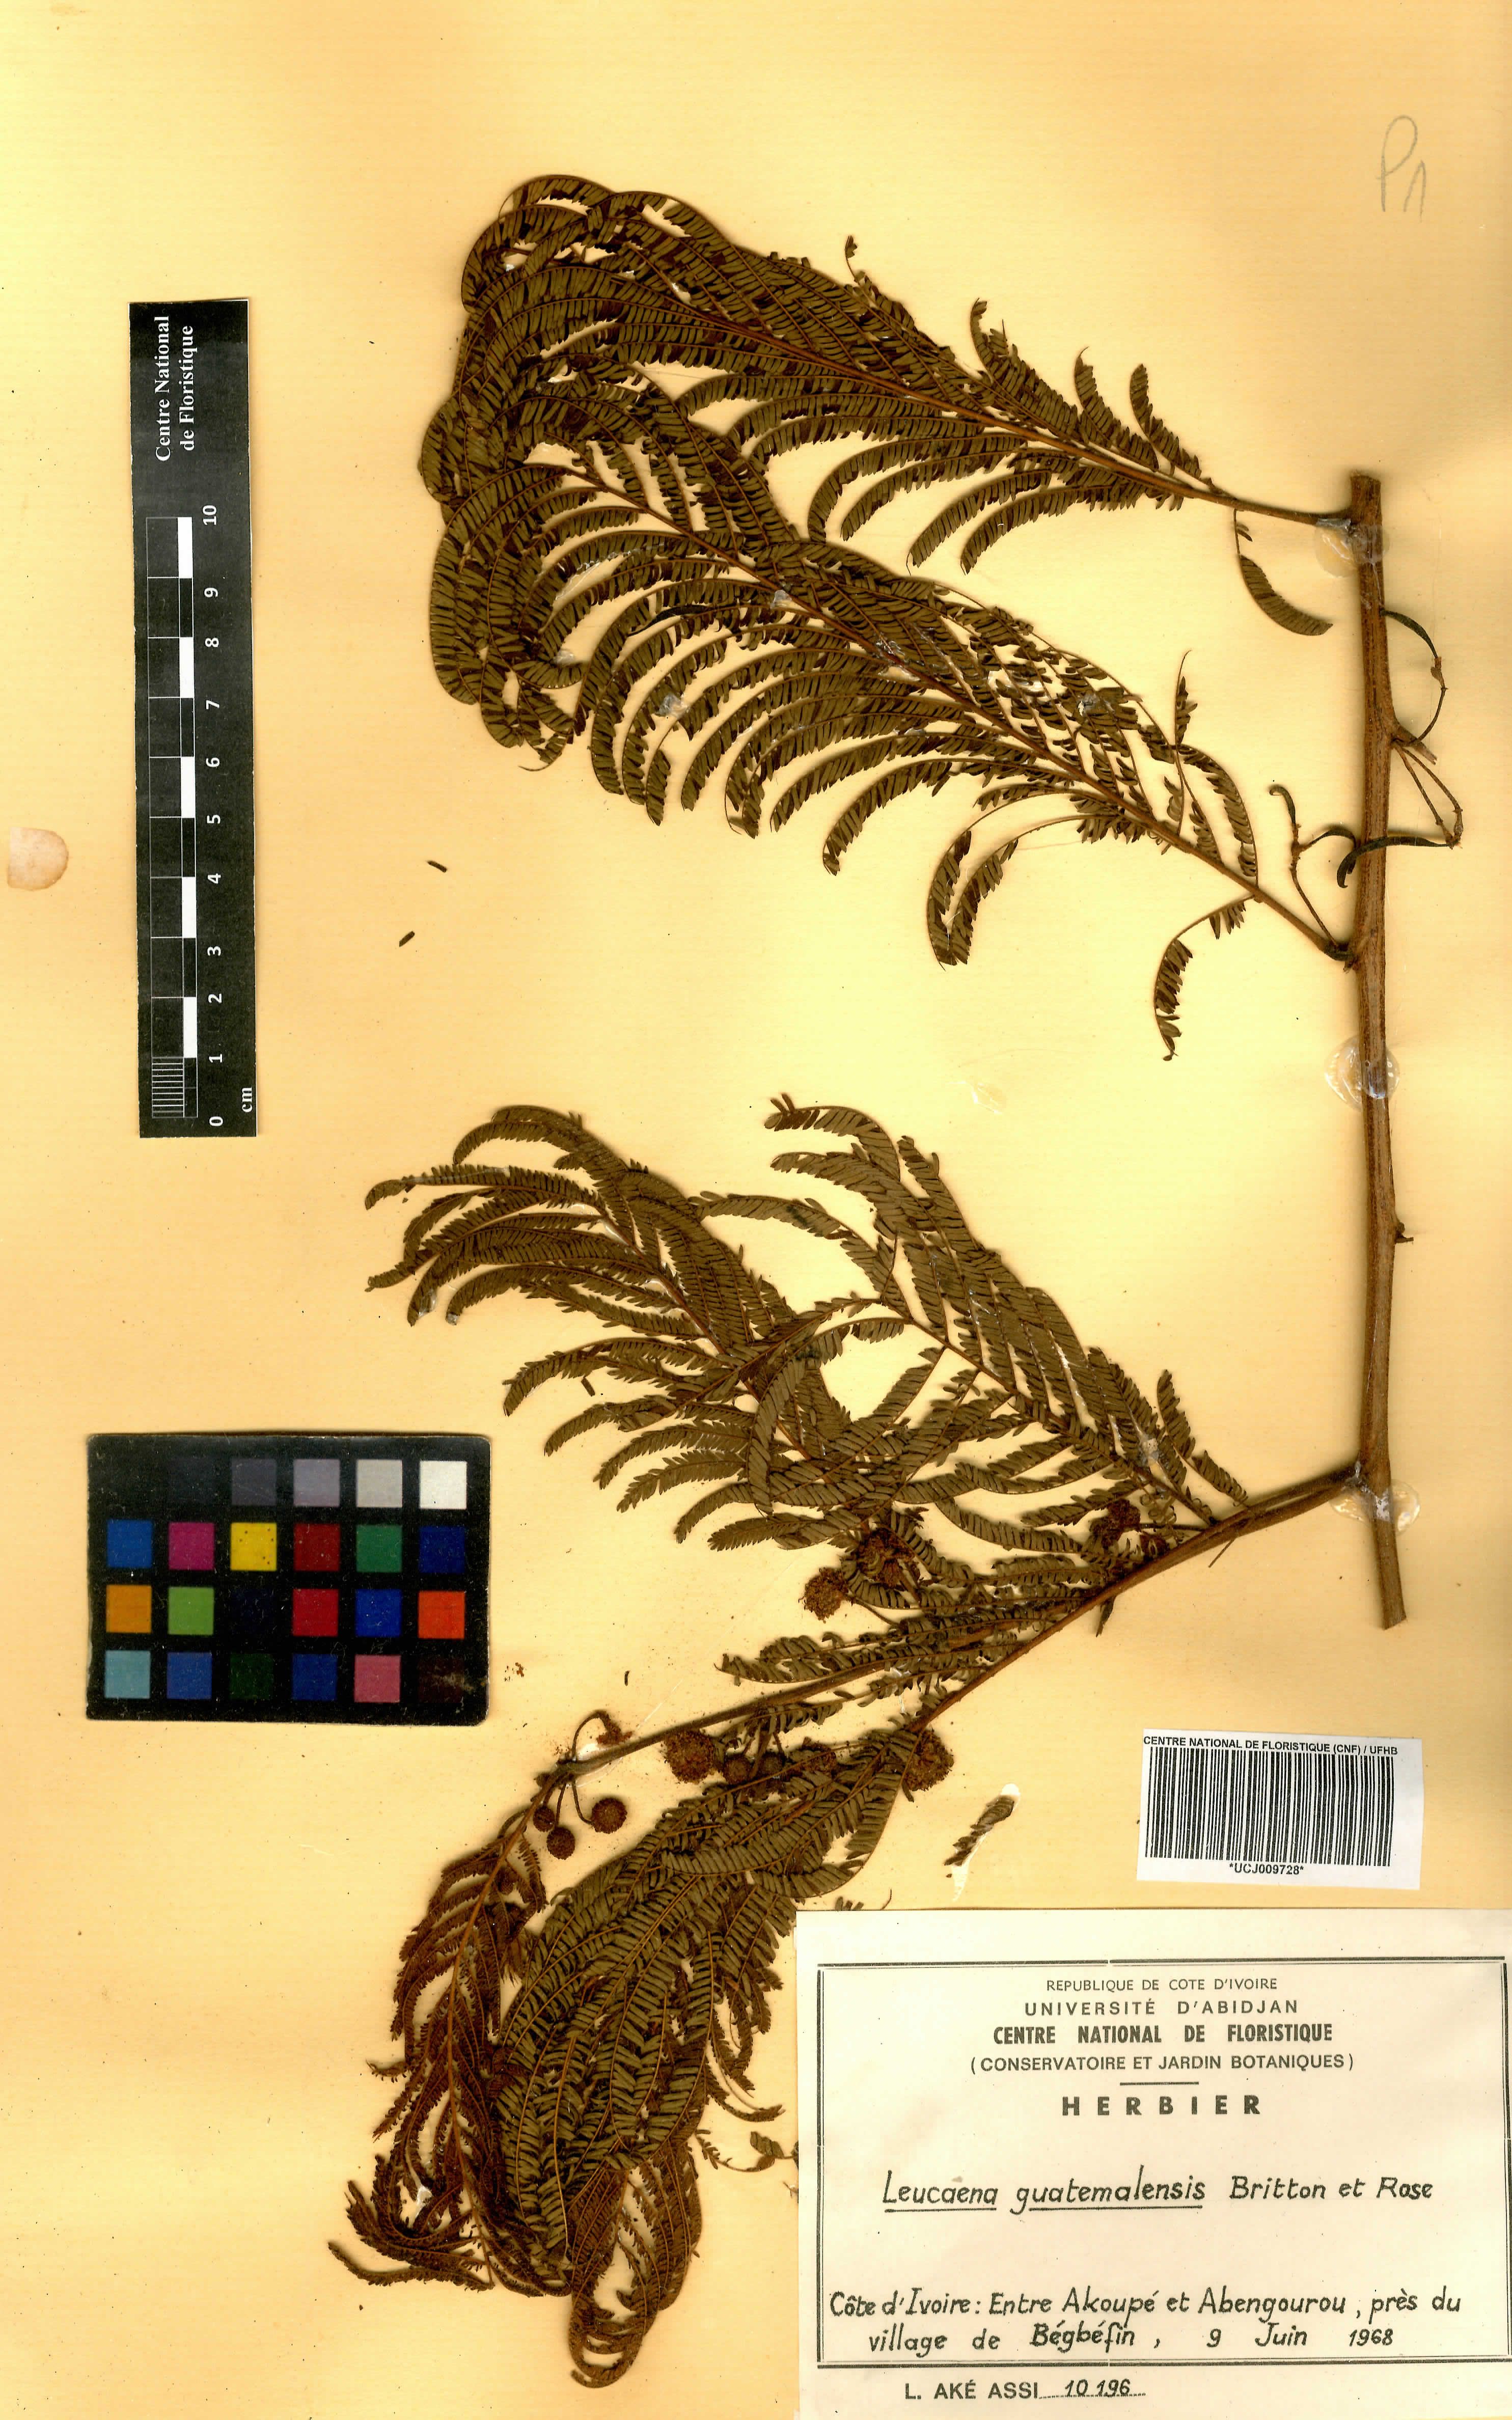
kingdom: Plantae
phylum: Tracheophyta
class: Magnoliopsida
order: Fabales
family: Fabaceae
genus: Leucaena
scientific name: Leucaena trichandra
